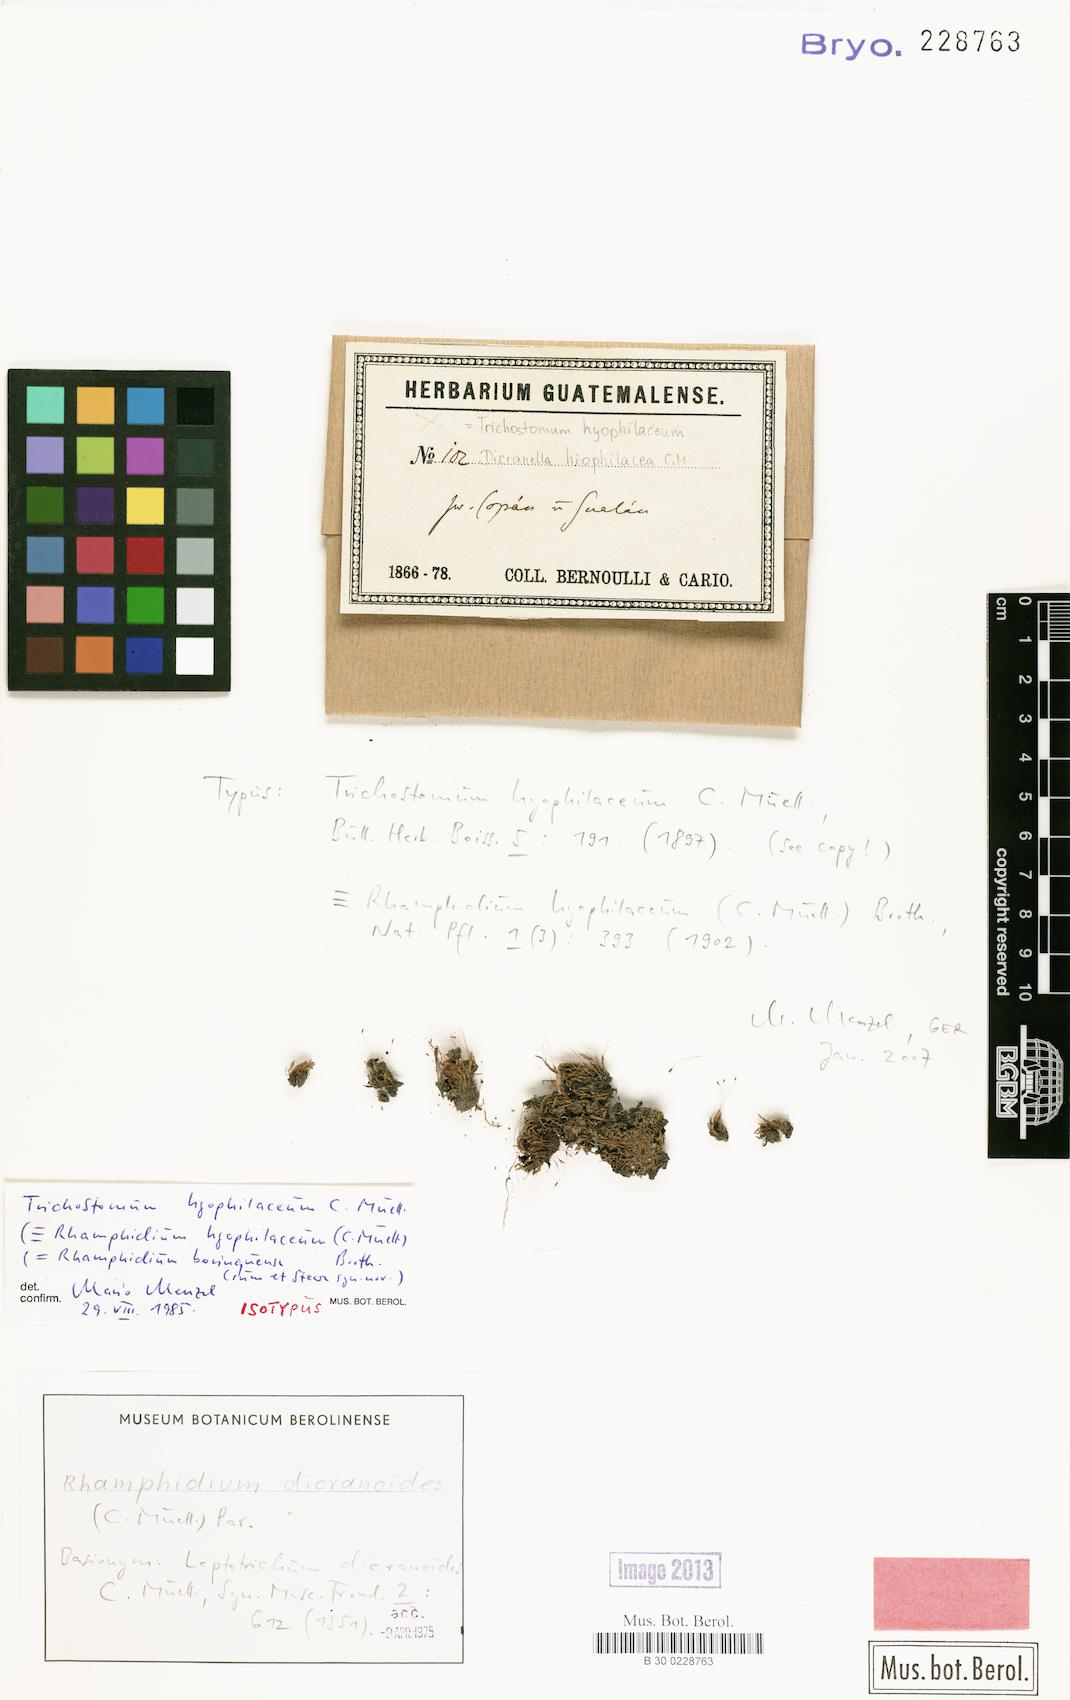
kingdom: Plantae
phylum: Bryophyta
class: Bryopsida
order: Dicranales
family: Ditrichaceae
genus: Rhamphidium
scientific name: Rhamphidium dicranoides
